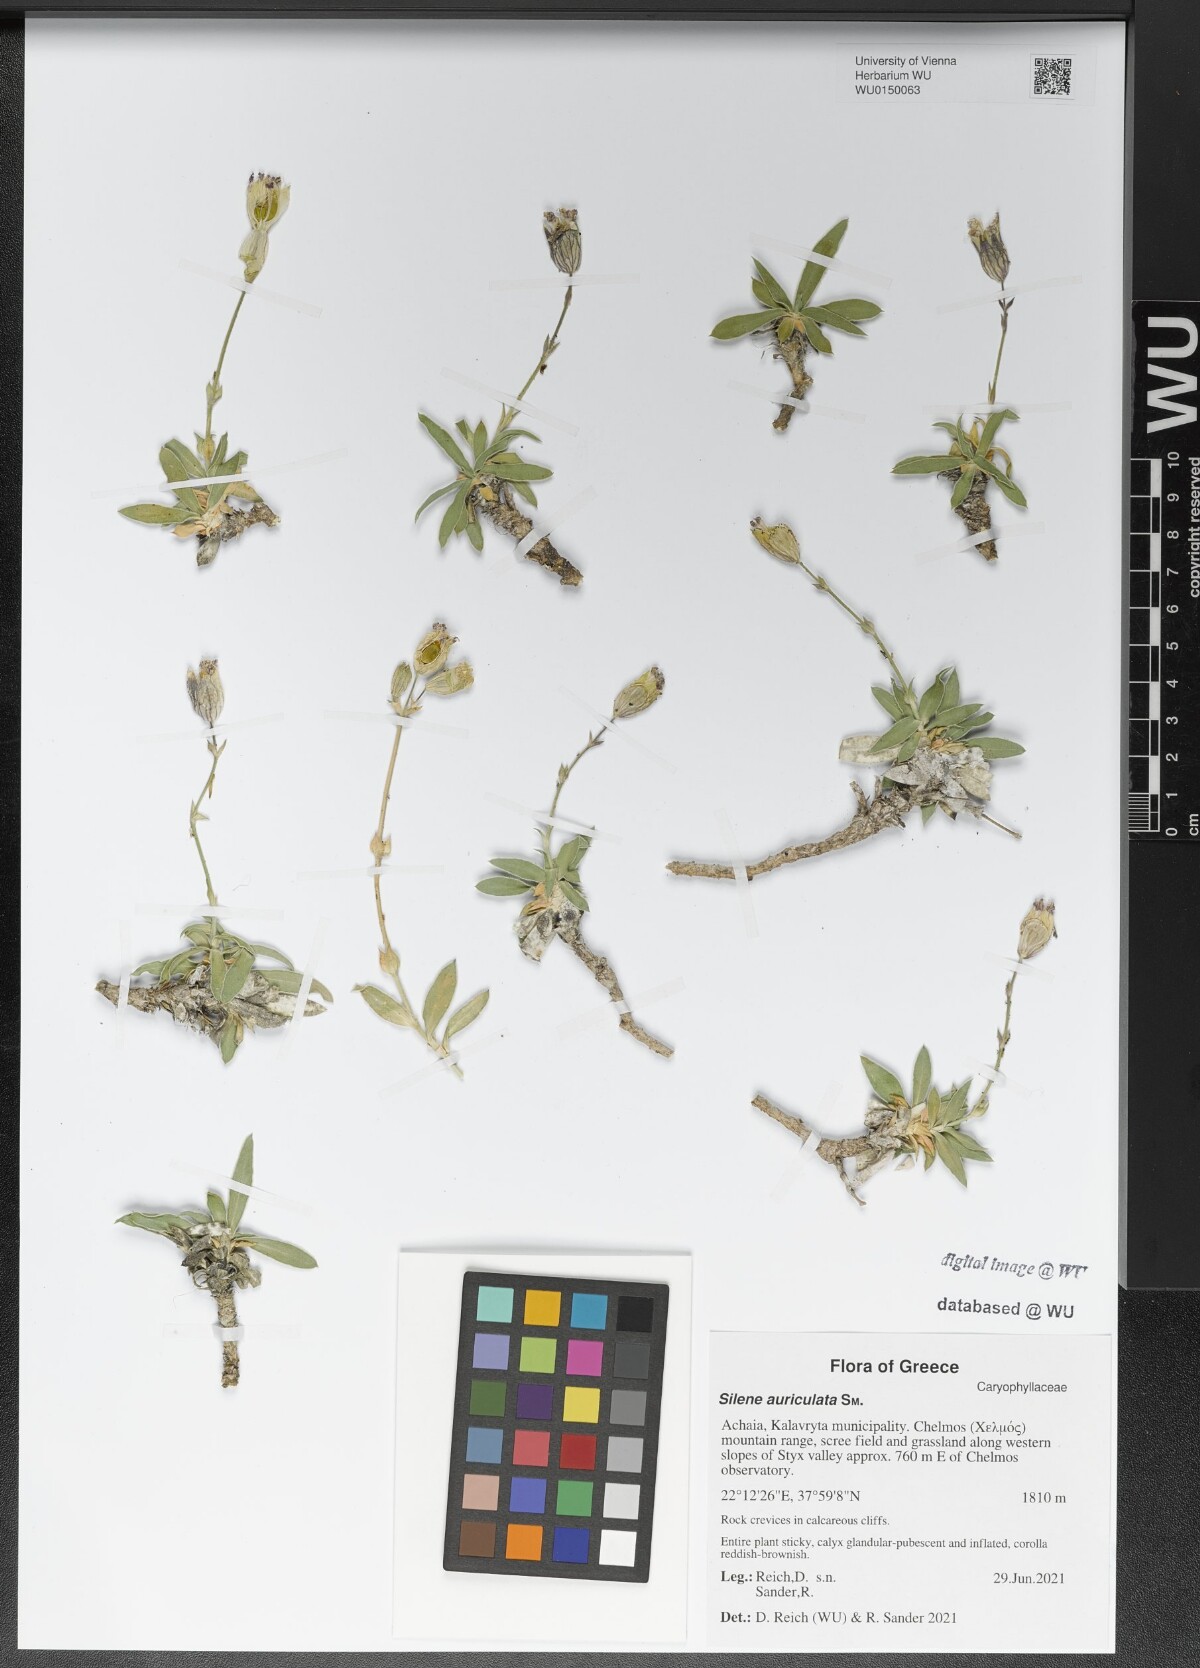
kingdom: Plantae
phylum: Tracheophyta
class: Magnoliopsida
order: Caryophyllales
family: Caryophyllaceae
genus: Silene
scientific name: Silene auriculata
